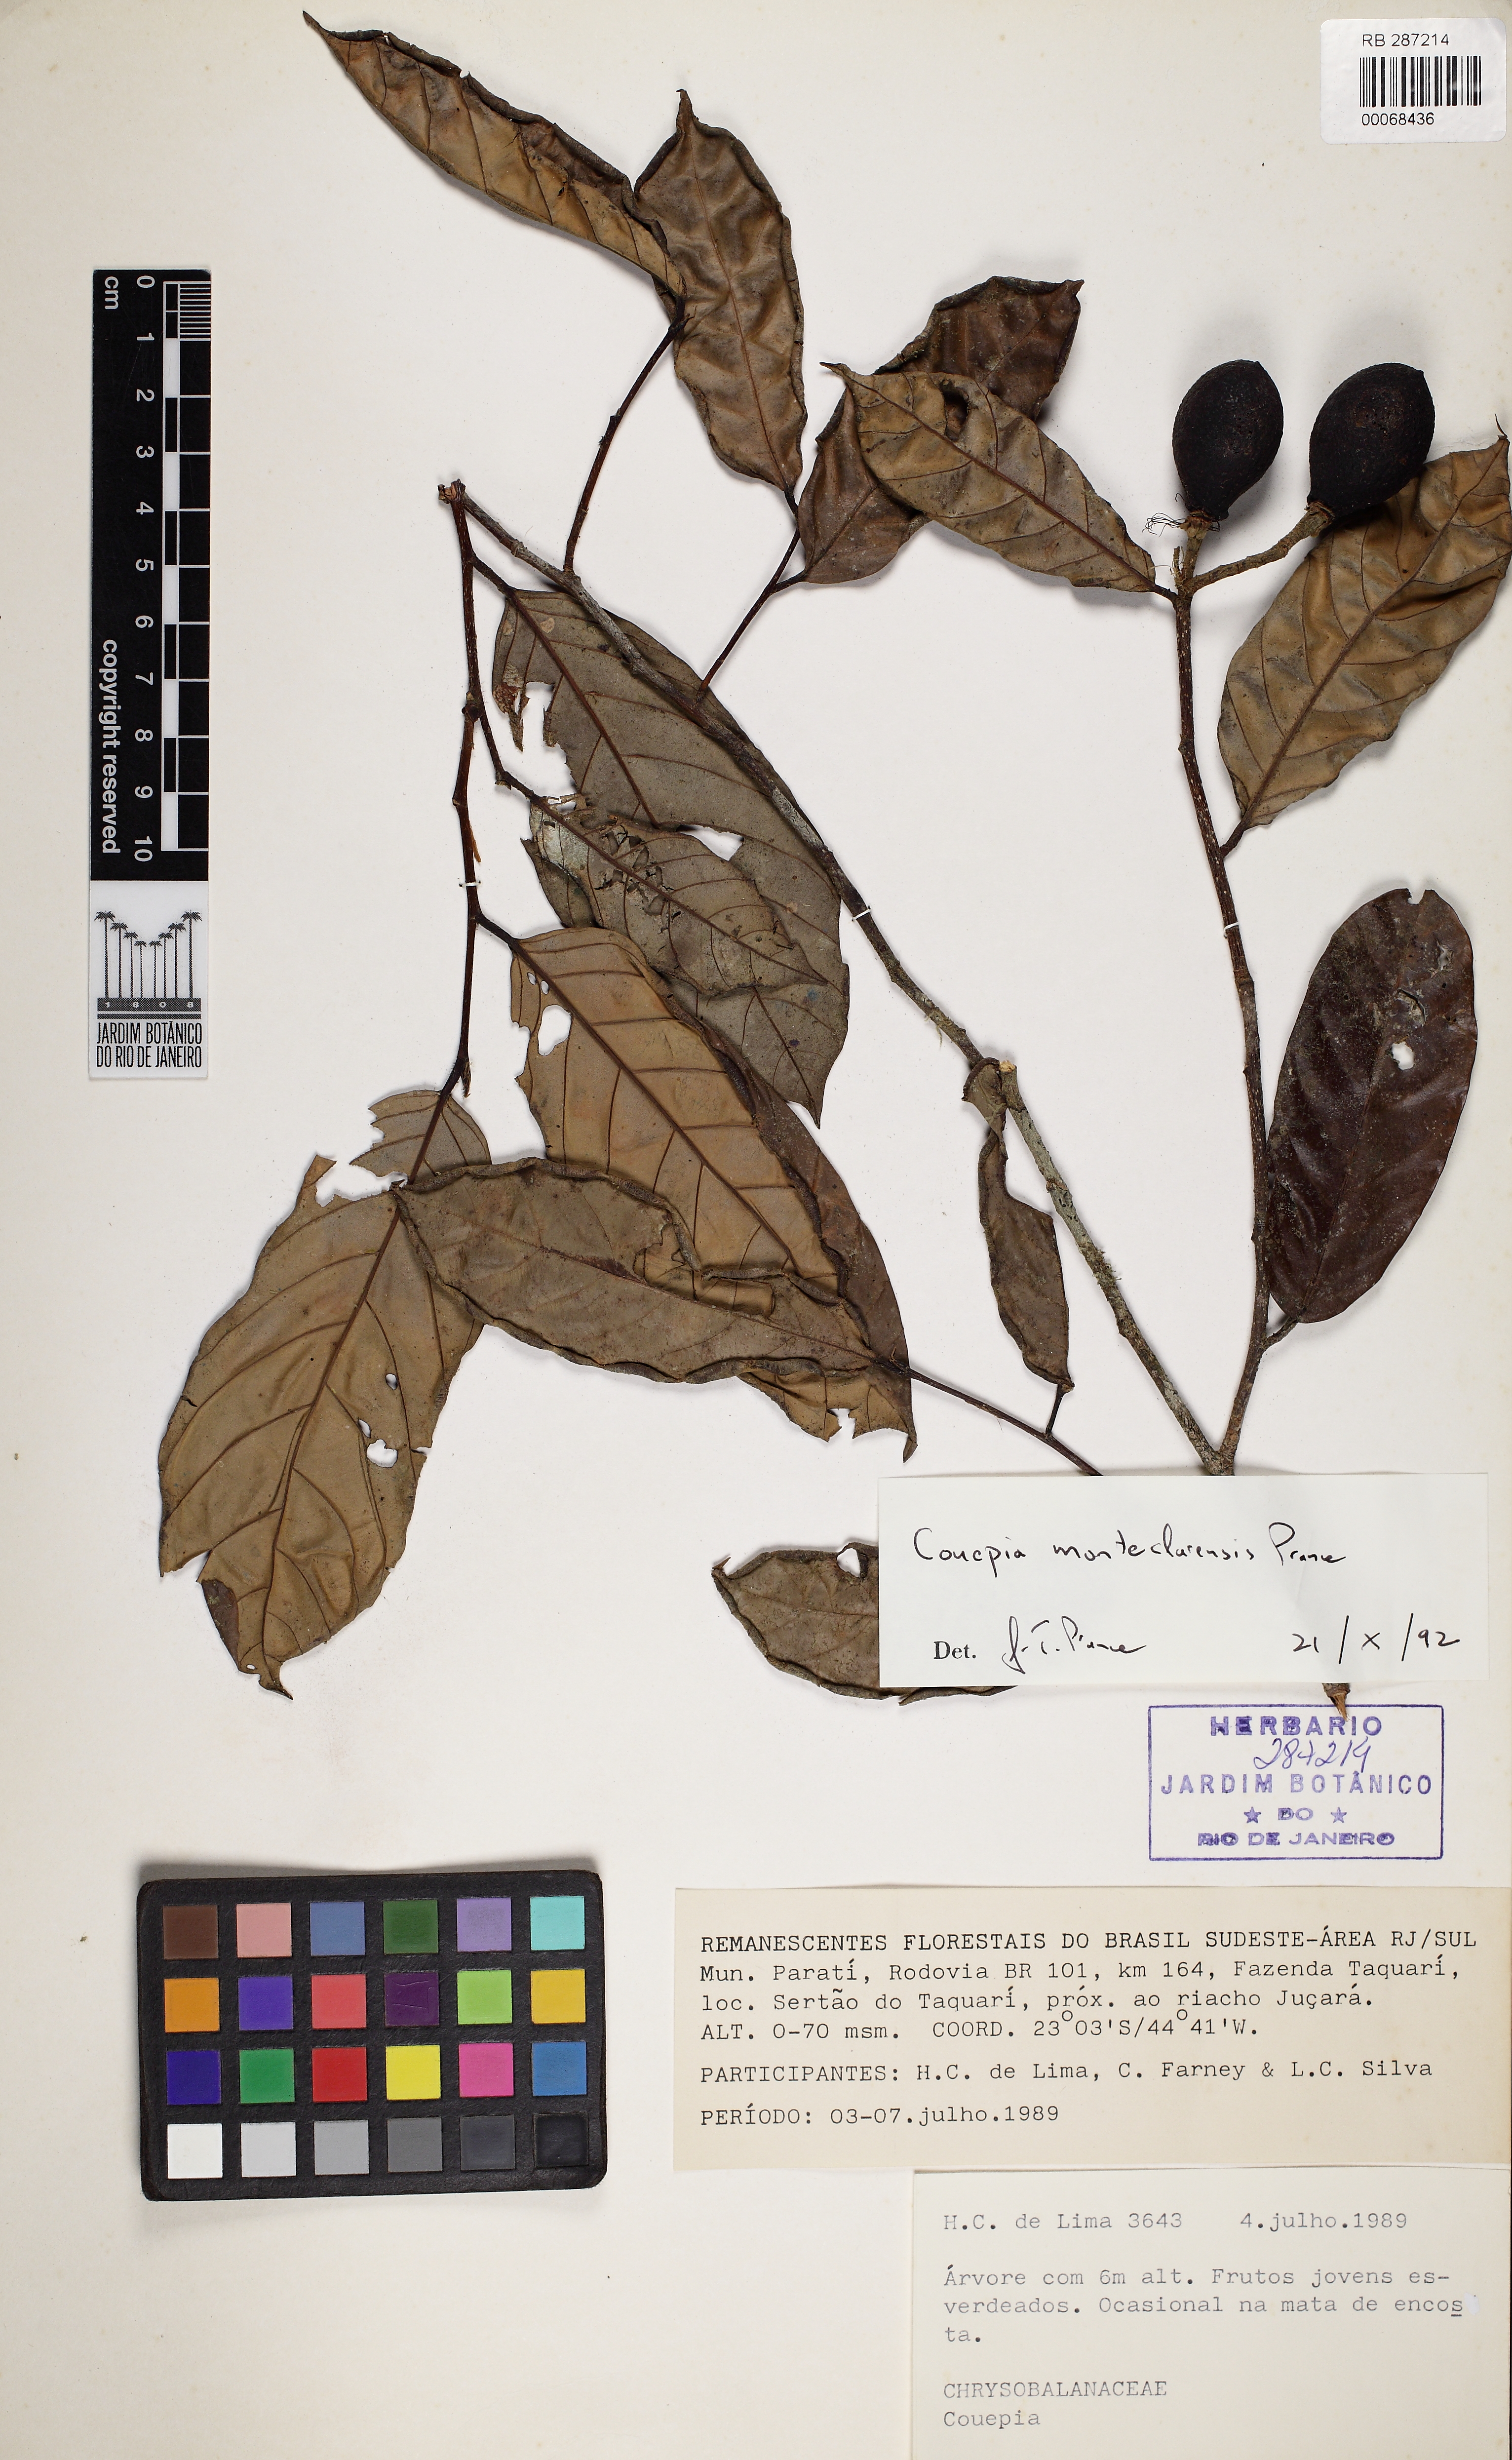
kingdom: Plantae
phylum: Tracheophyta
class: Magnoliopsida
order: Malpighiales
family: Chrysobalanaceae
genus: Couepia
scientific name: Couepia
